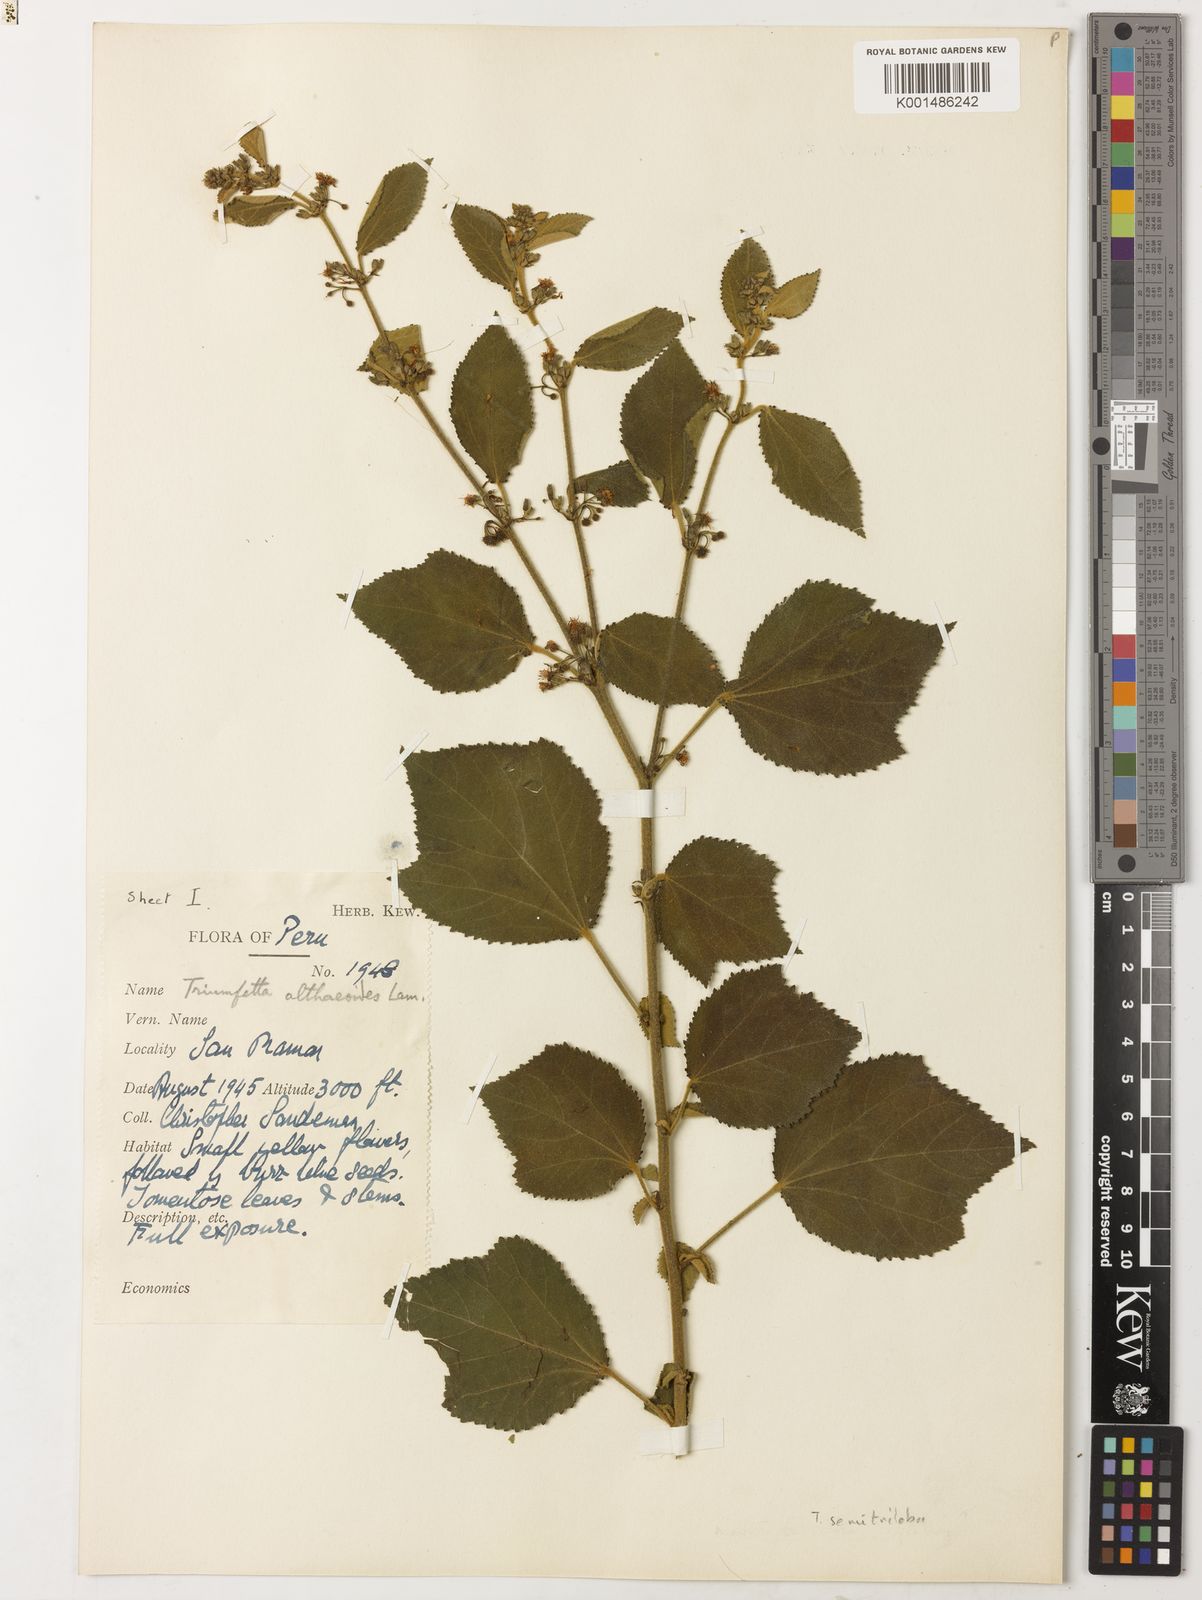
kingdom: Plantae
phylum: Tracheophyta
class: Magnoliopsida
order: Malvales
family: Malvaceae
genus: Triumfetta
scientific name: Triumfetta althaeoides
